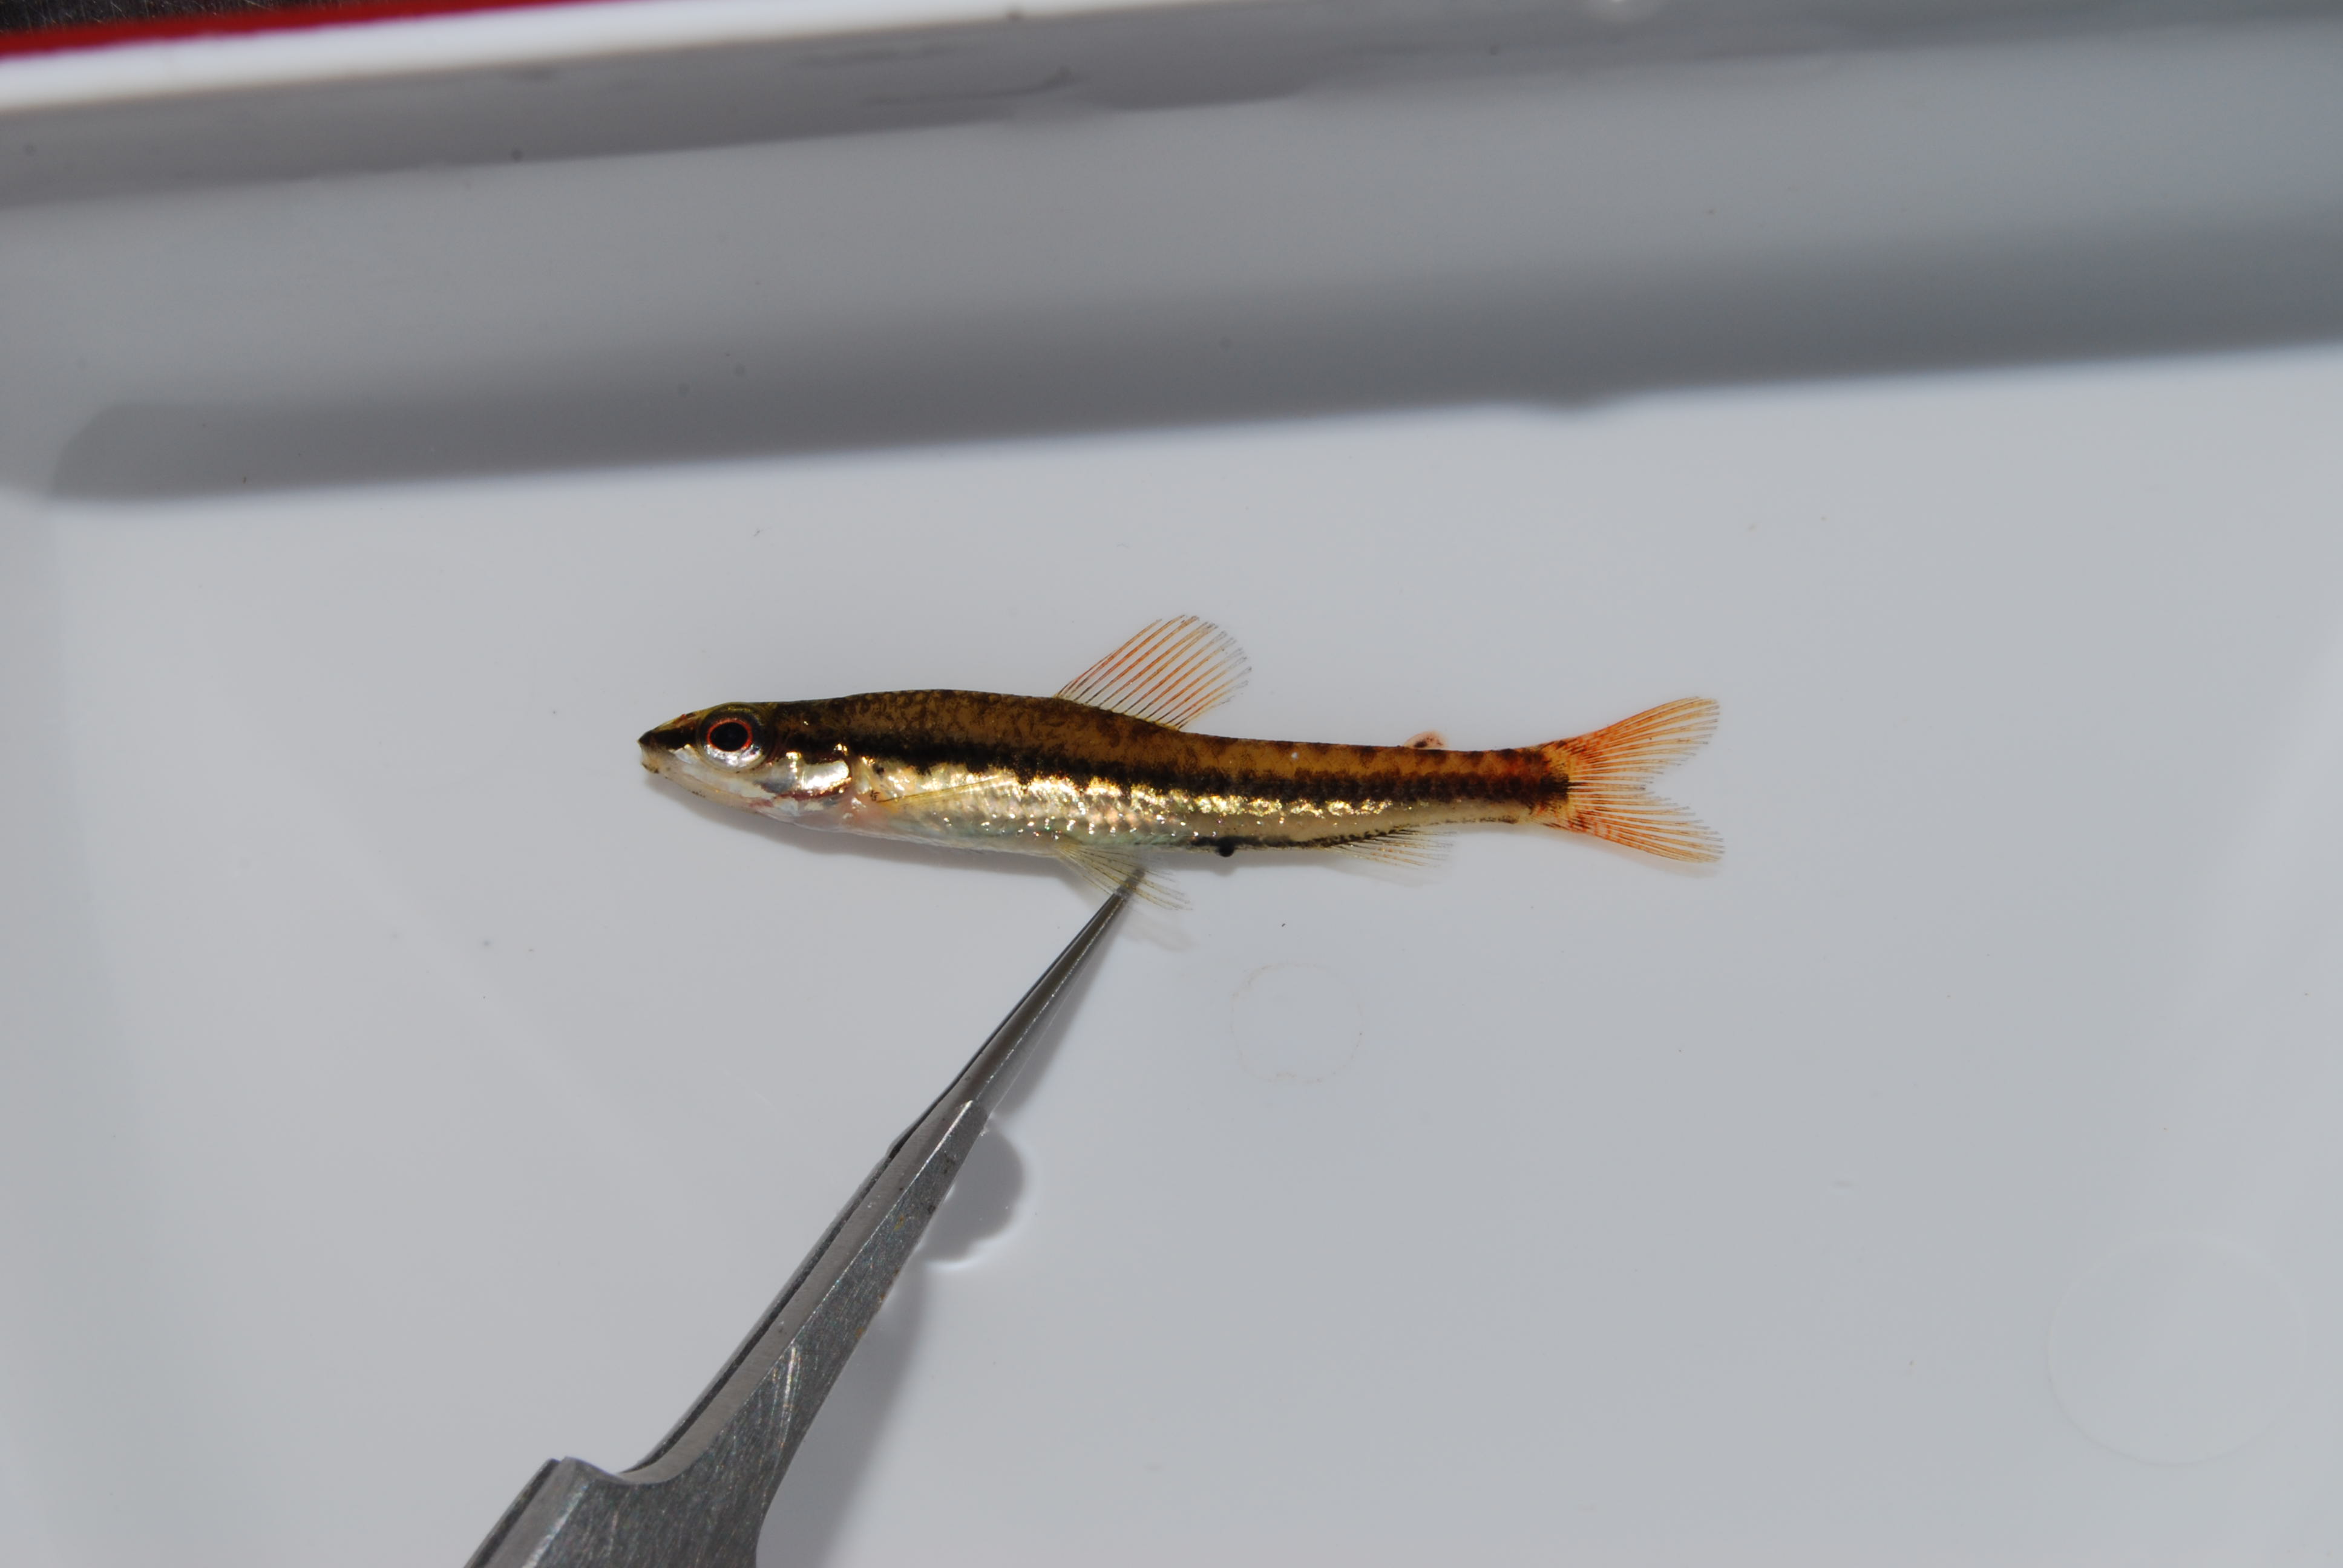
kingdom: Animalia
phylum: Chordata
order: Characiformes
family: Distichodontidae
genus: Nannocharax
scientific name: Nannocharax lineostriatus
